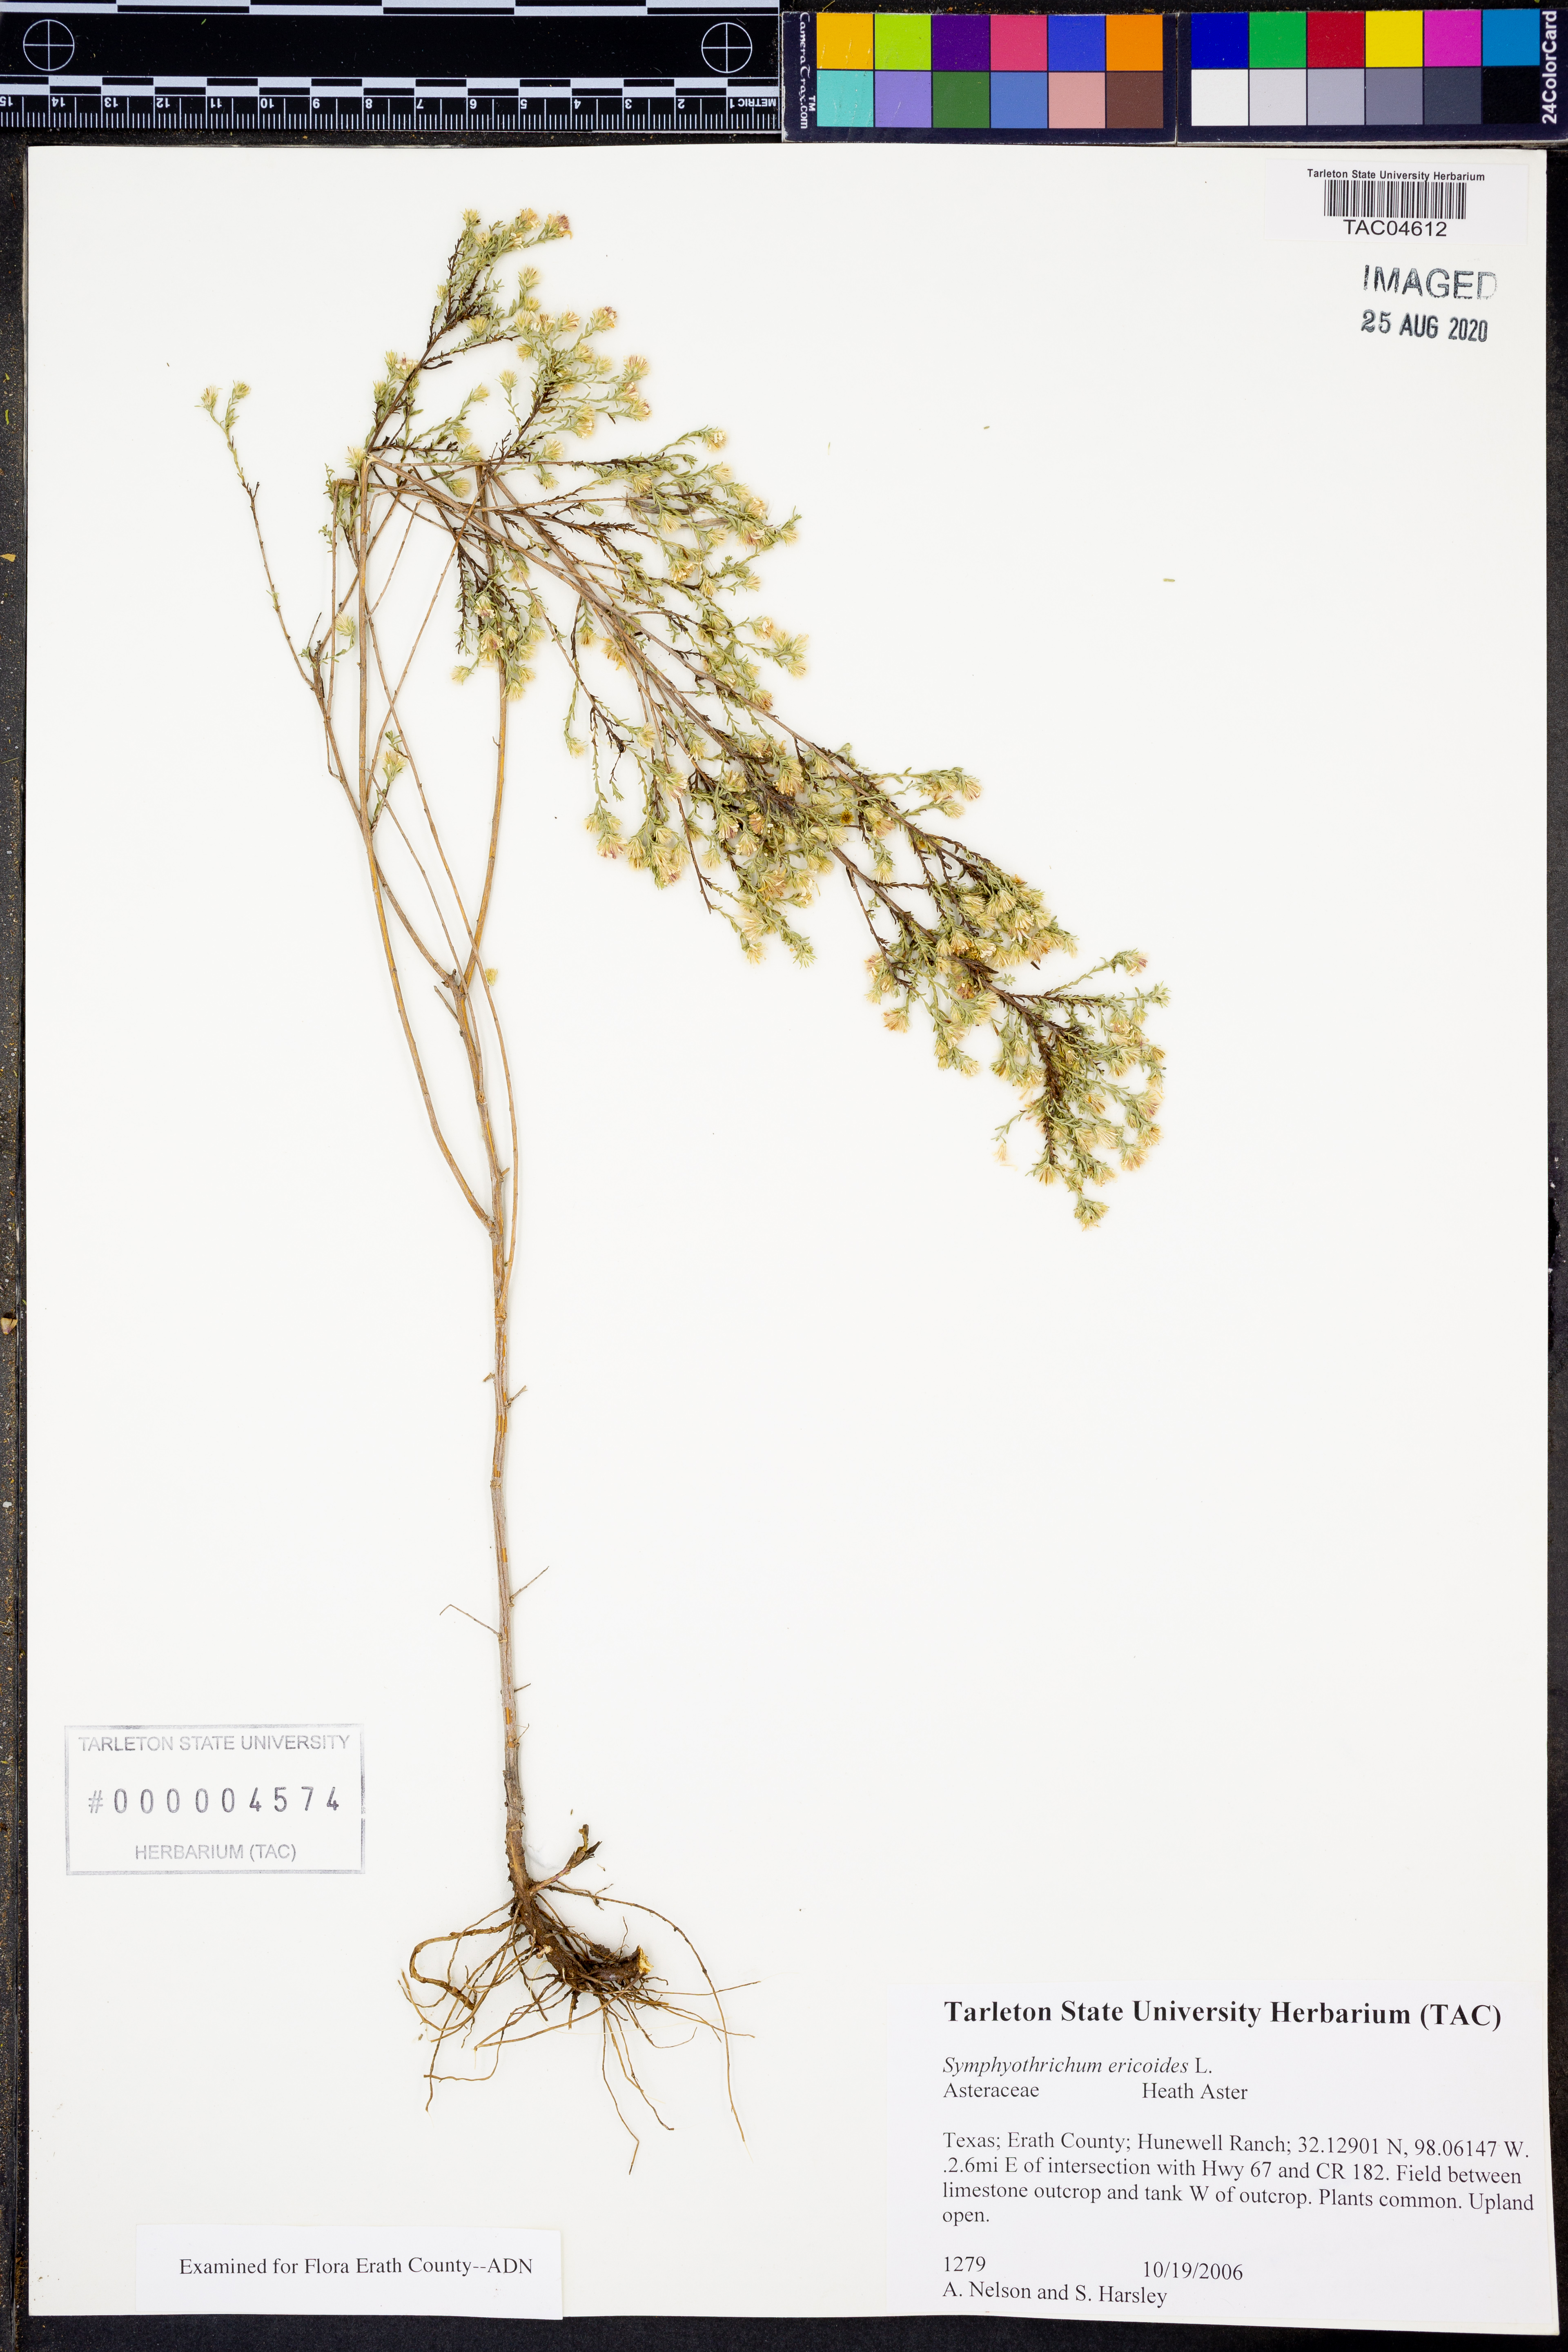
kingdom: Plantae
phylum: Tracheophyta
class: Magnoliopsida
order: Asterales
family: Asteraceae
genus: Symphyotrichum
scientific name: Symphyotrichum ericoides
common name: Heath aster
